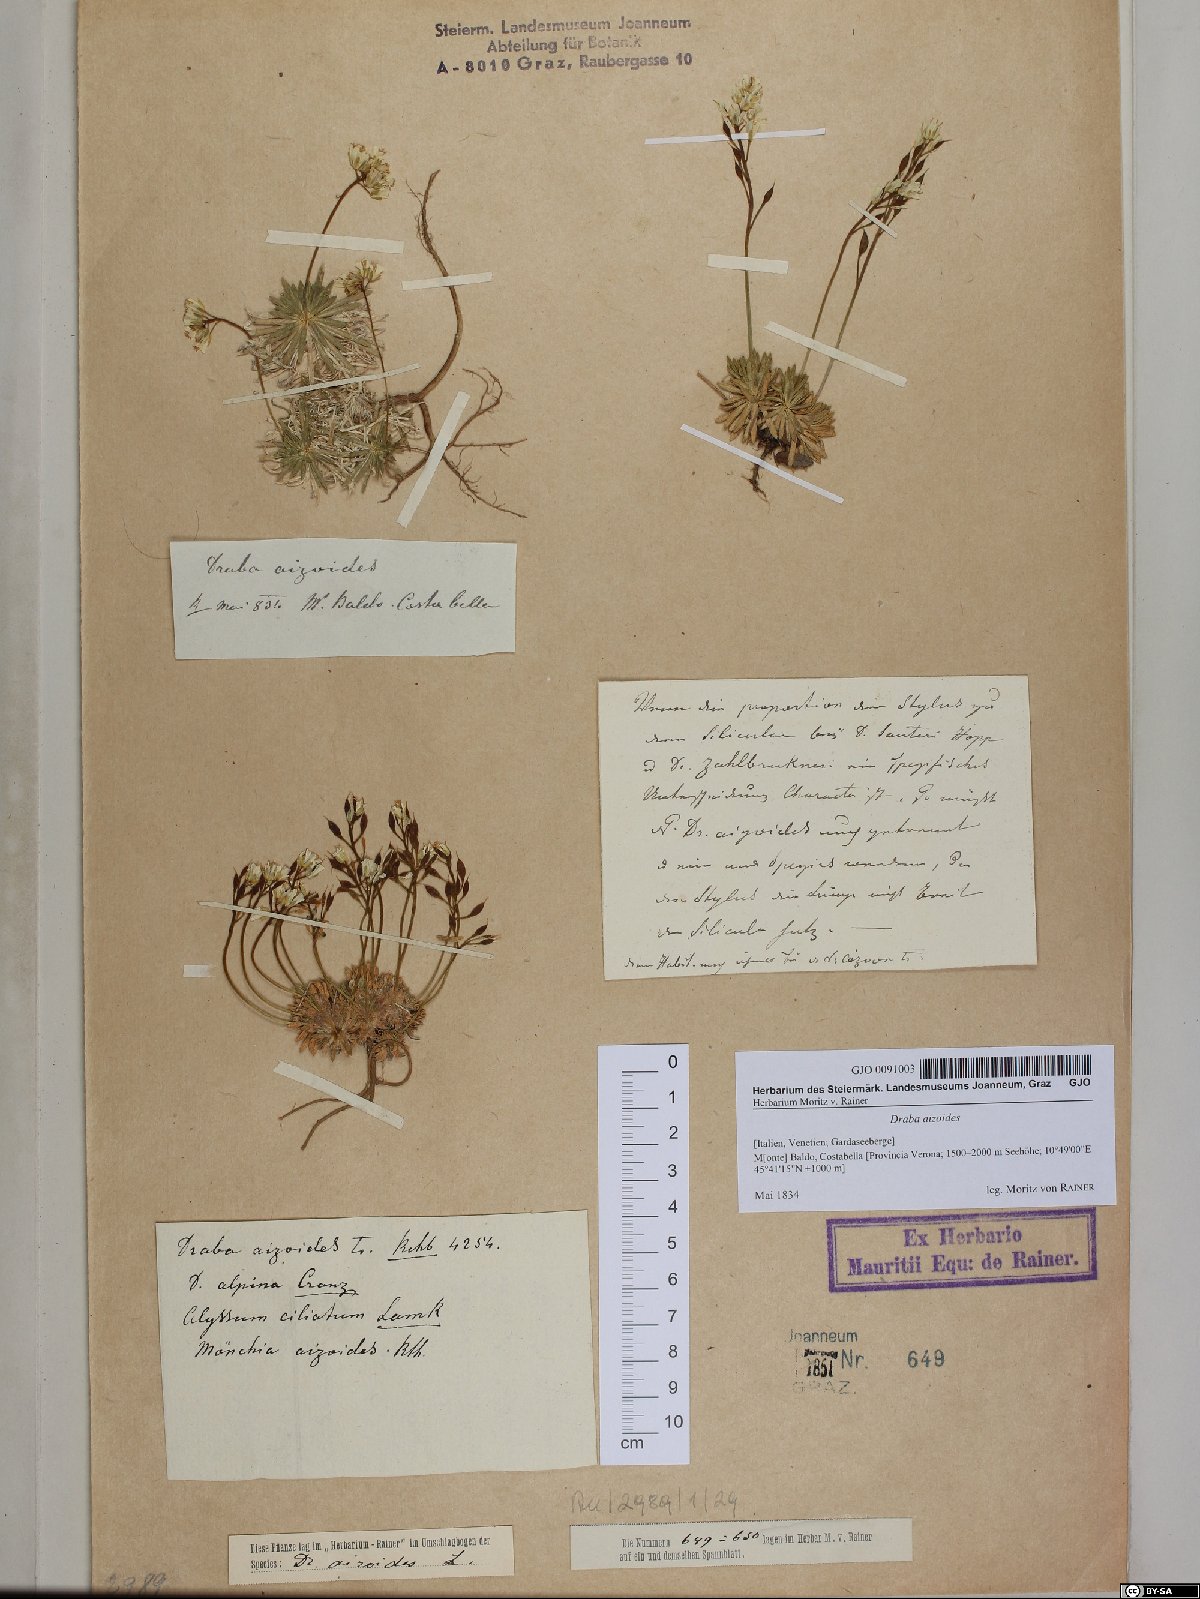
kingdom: Plantae
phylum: Tracheophyta
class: Magnoliopsida
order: Brassicales
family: Brassicaceae
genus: Draba
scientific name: Draba aizoides
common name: Yellow whitlowgrass
